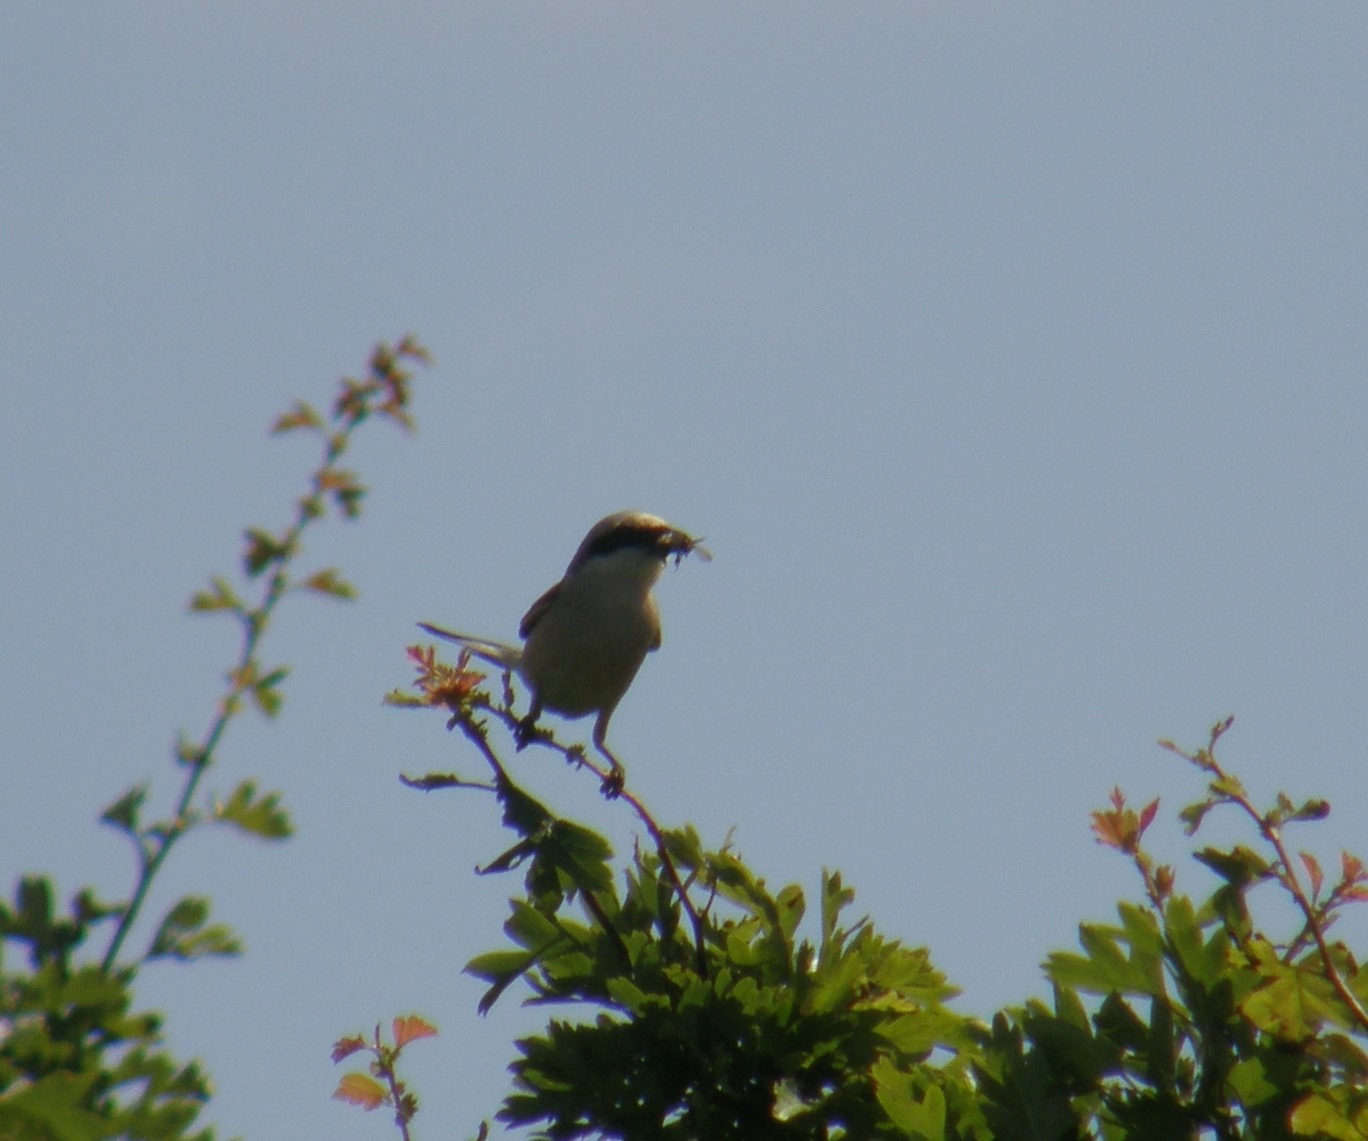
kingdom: Animalia
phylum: Chordata
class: Aves
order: Passeriformes
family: Laniidae
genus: Lanius
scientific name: Lanius collurio
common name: Rødrygget tornskade
